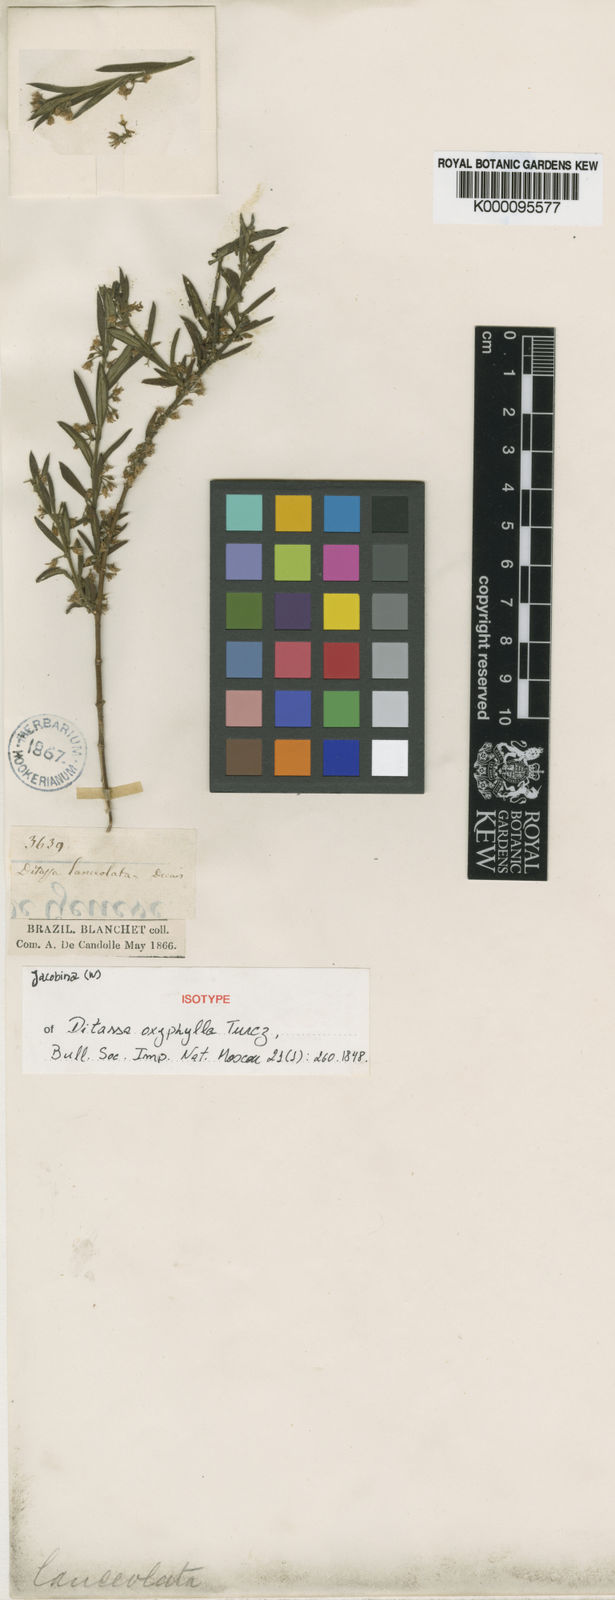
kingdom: Plantae
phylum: Tracheophyta
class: Magnoliopsida
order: Gentianales
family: Apocynaceae
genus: Ditassa
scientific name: Ditassa lanceolata
